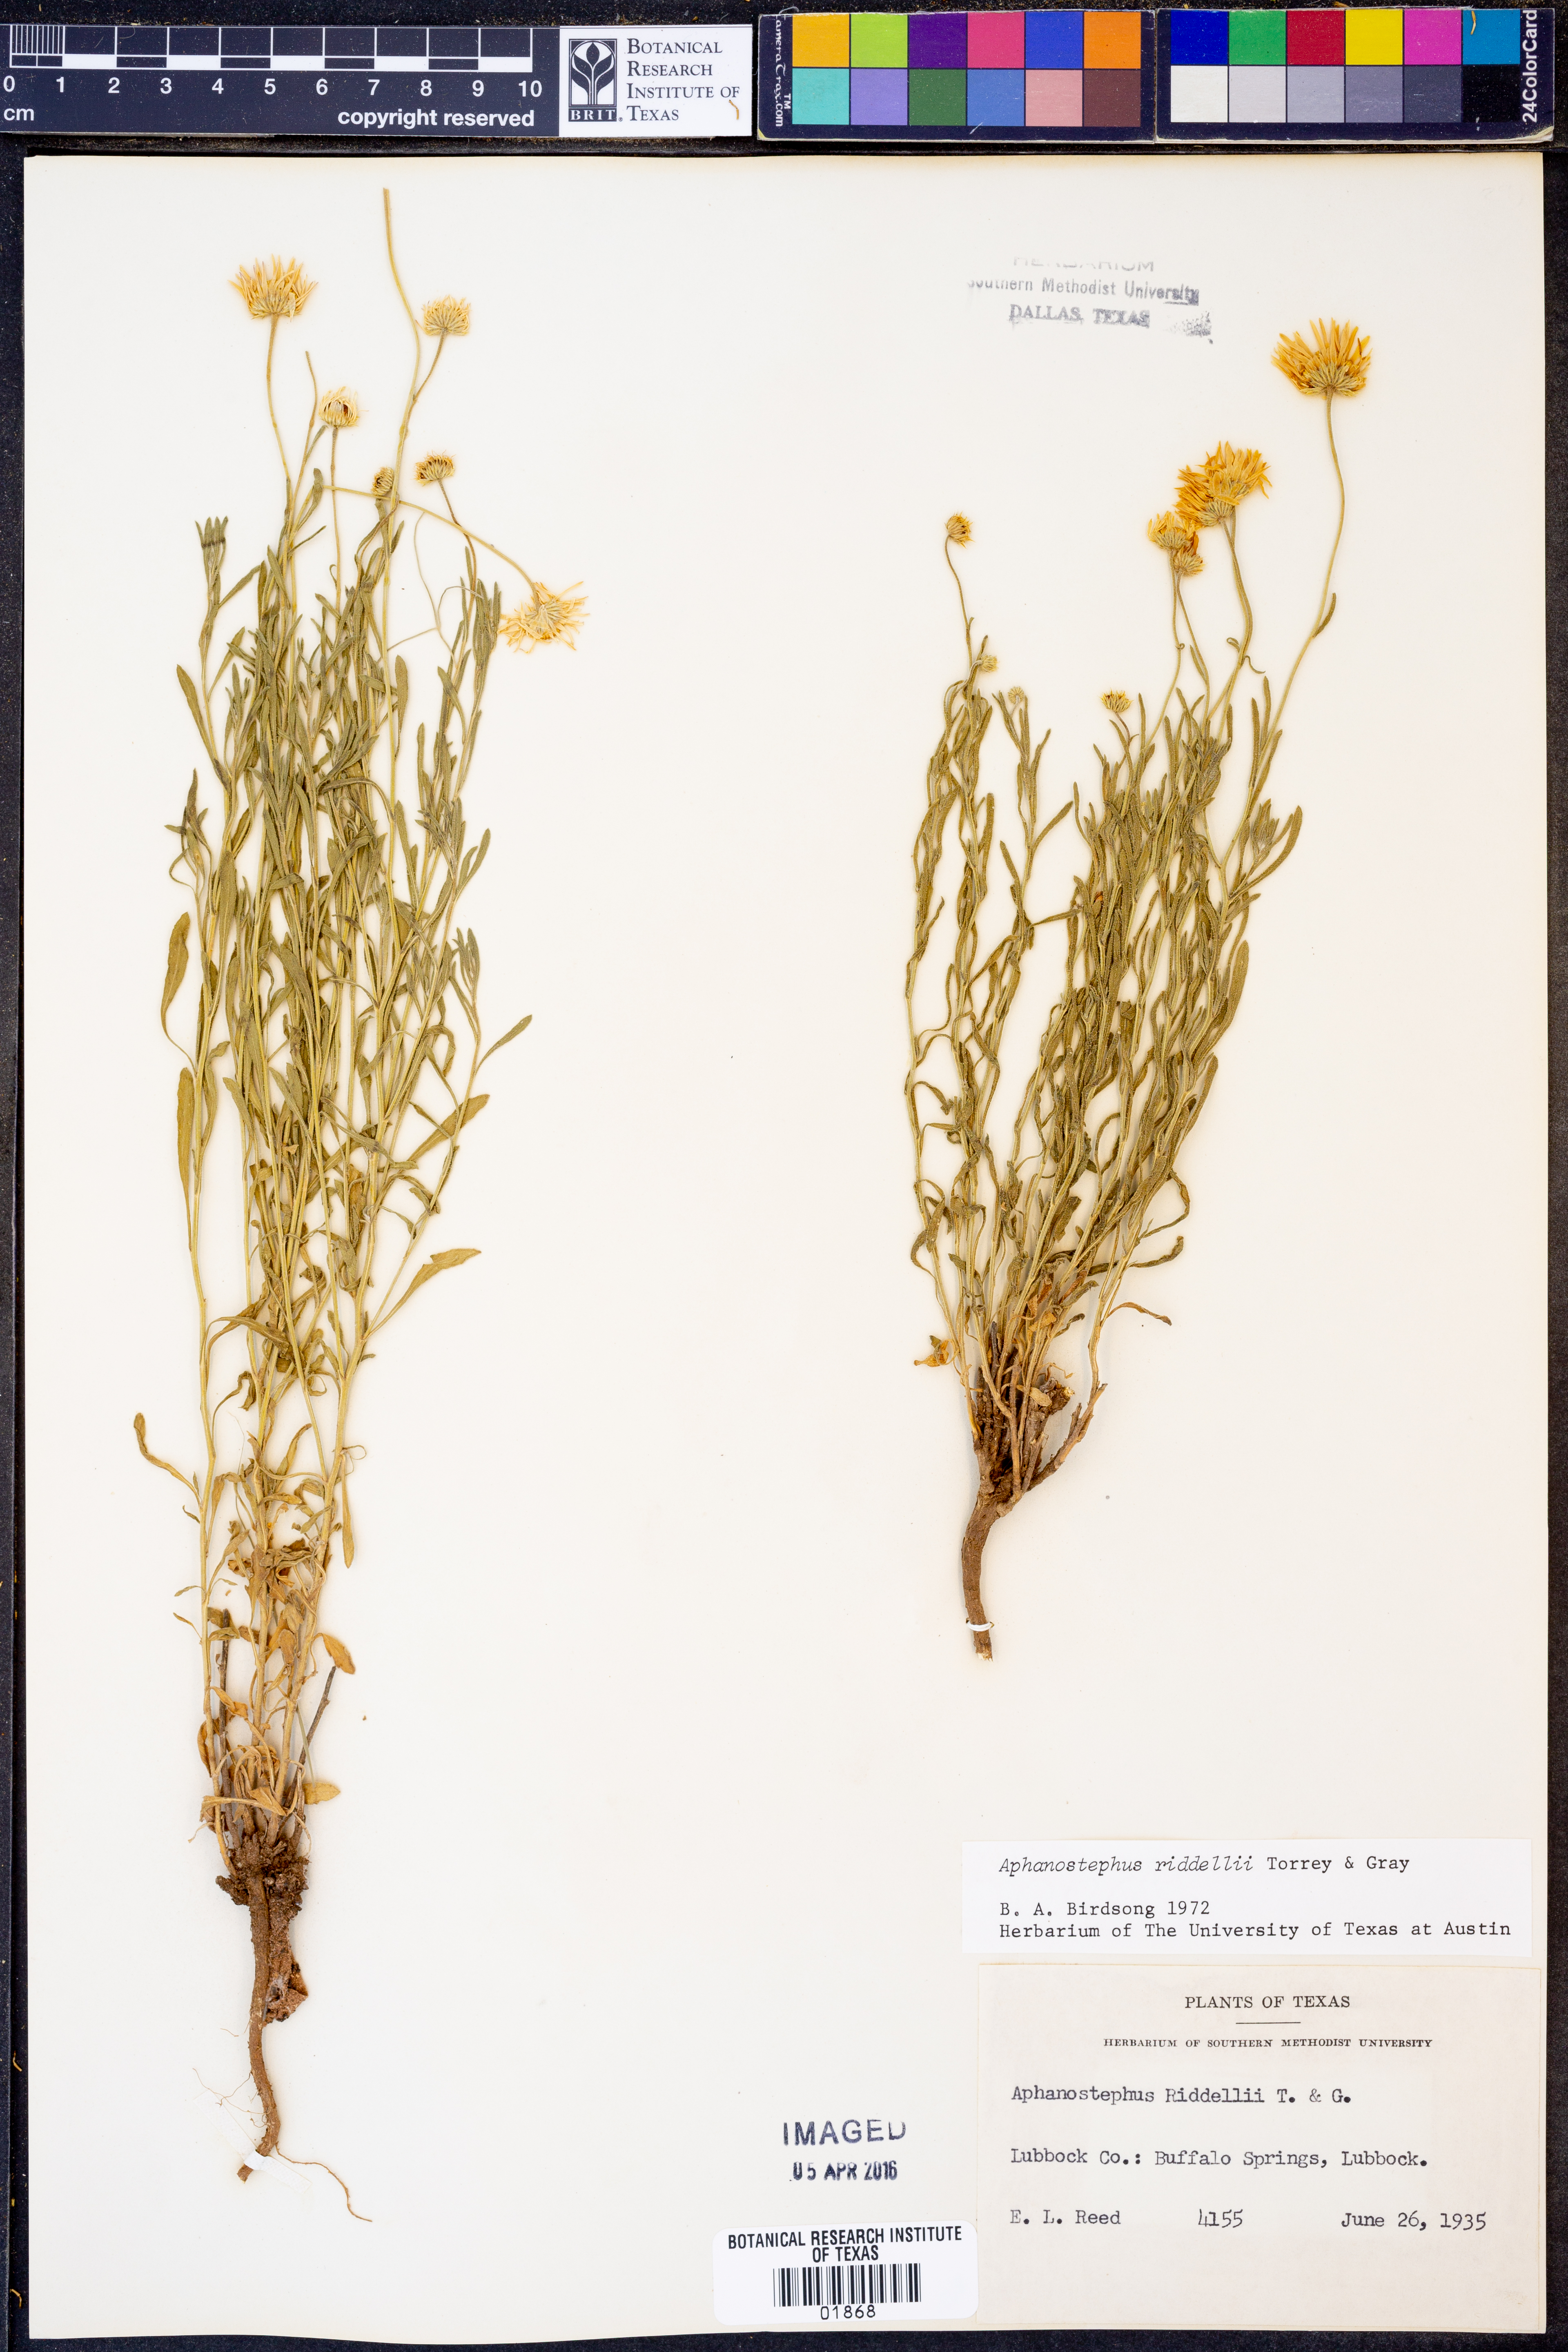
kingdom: Plantae
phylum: Tracheophyta
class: Magnoliopsida
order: Asterales
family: Asteraceae
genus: Aphanostephus
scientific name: Aphanostephus riddellii
